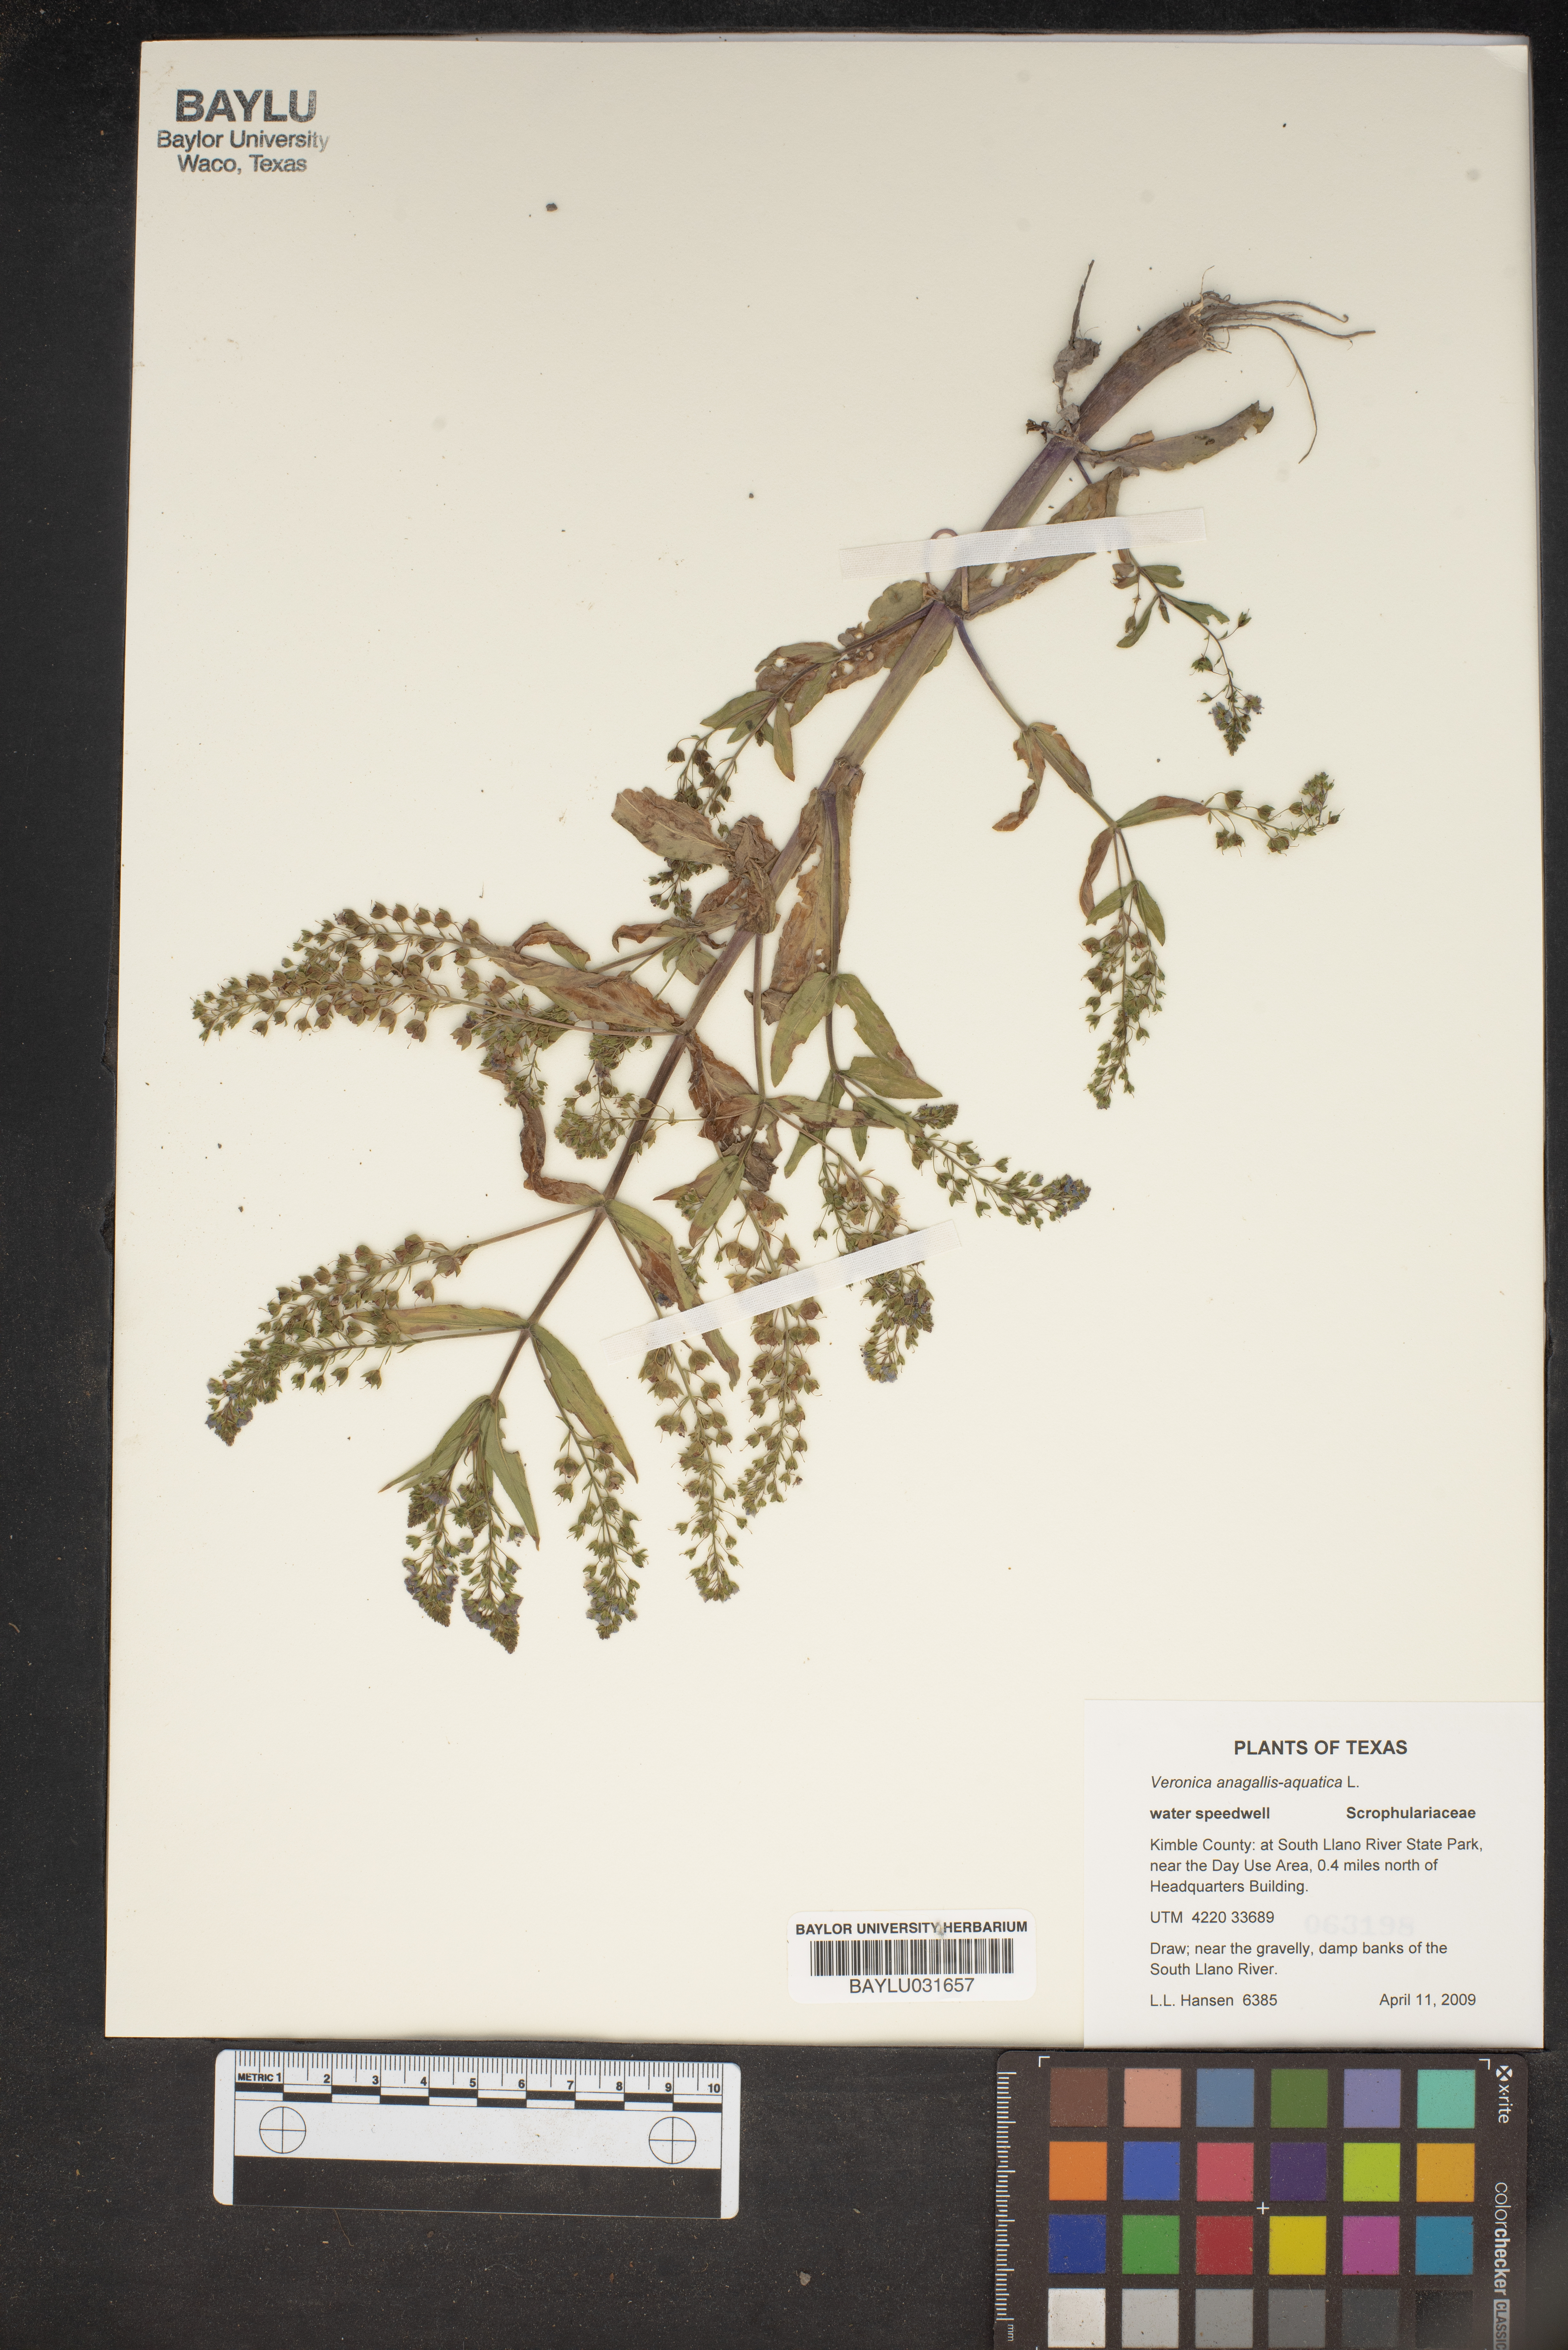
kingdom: Plantae
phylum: Tracheophyta
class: Magnoliopsida
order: Lamiales
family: Plantaginaceae
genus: Veronica
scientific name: Veronica anagallis-aquatica
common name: Water speedwell
